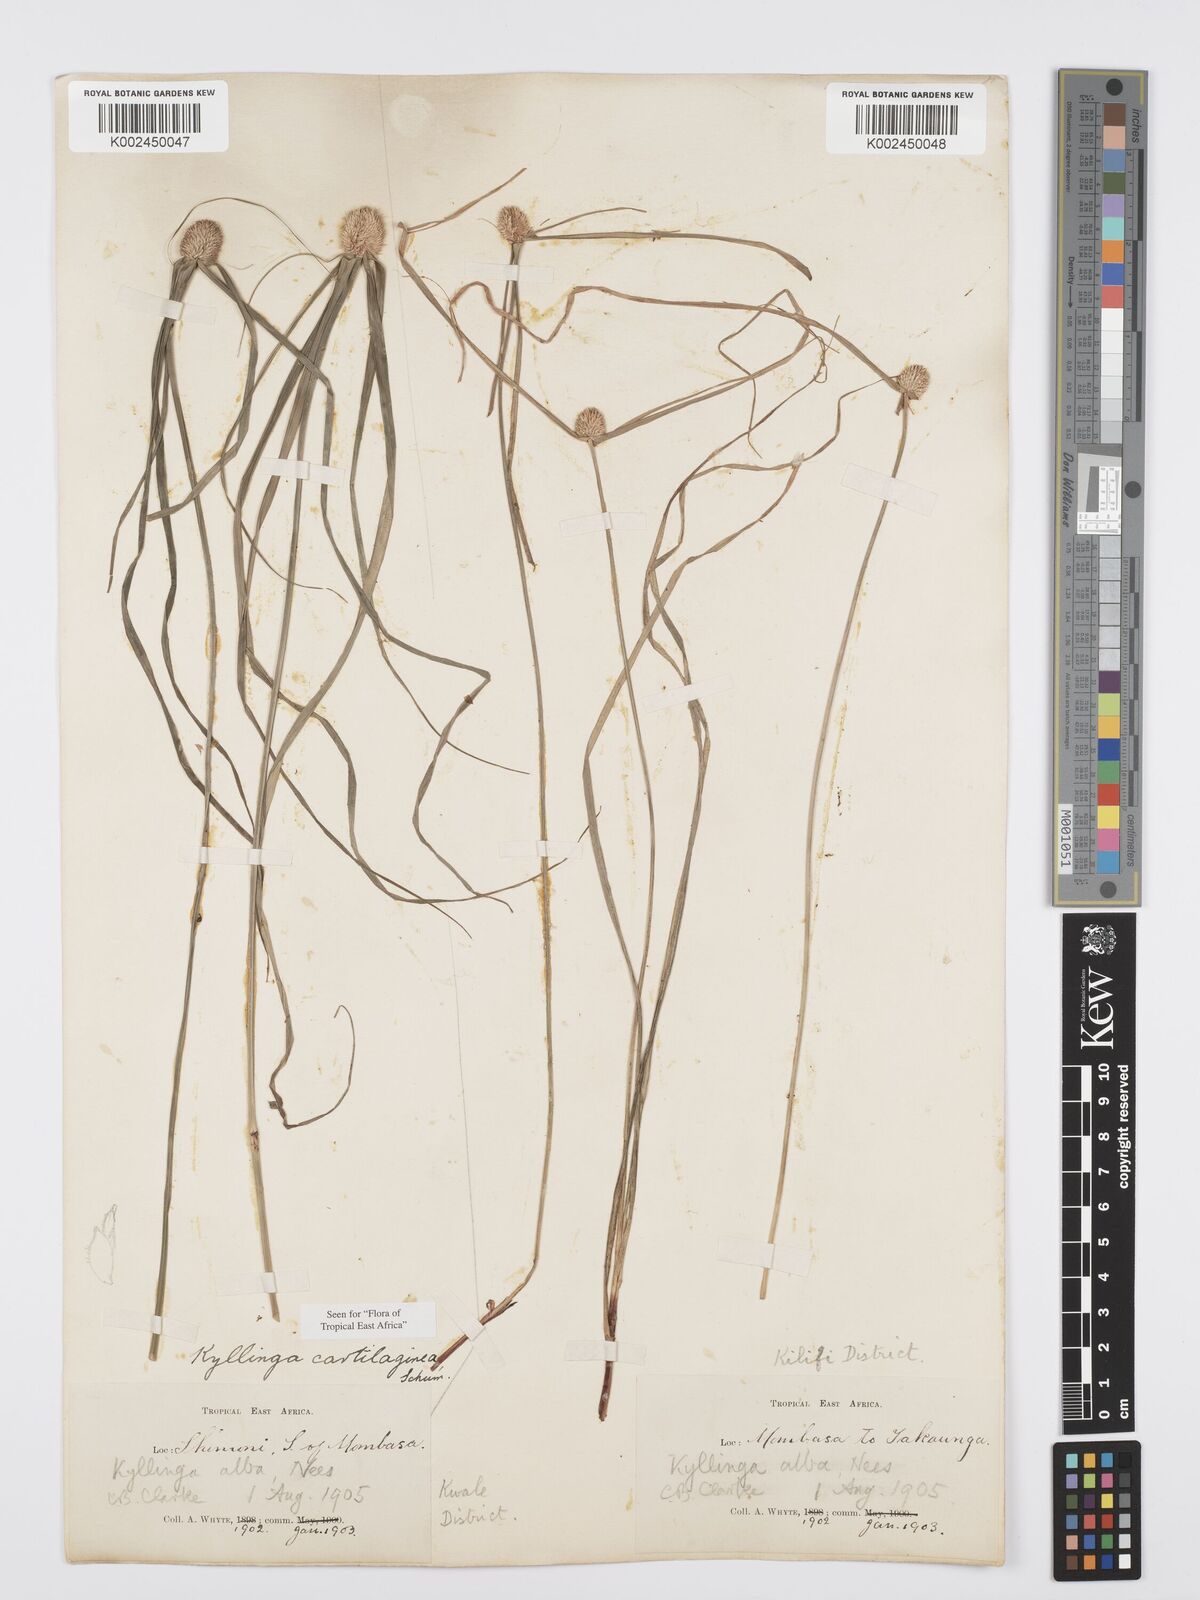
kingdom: Plantae
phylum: Tracheophyta
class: Liliopsida
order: Poales
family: Cyperaceae
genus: Cyperus
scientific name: Cyperus cartilagineus
